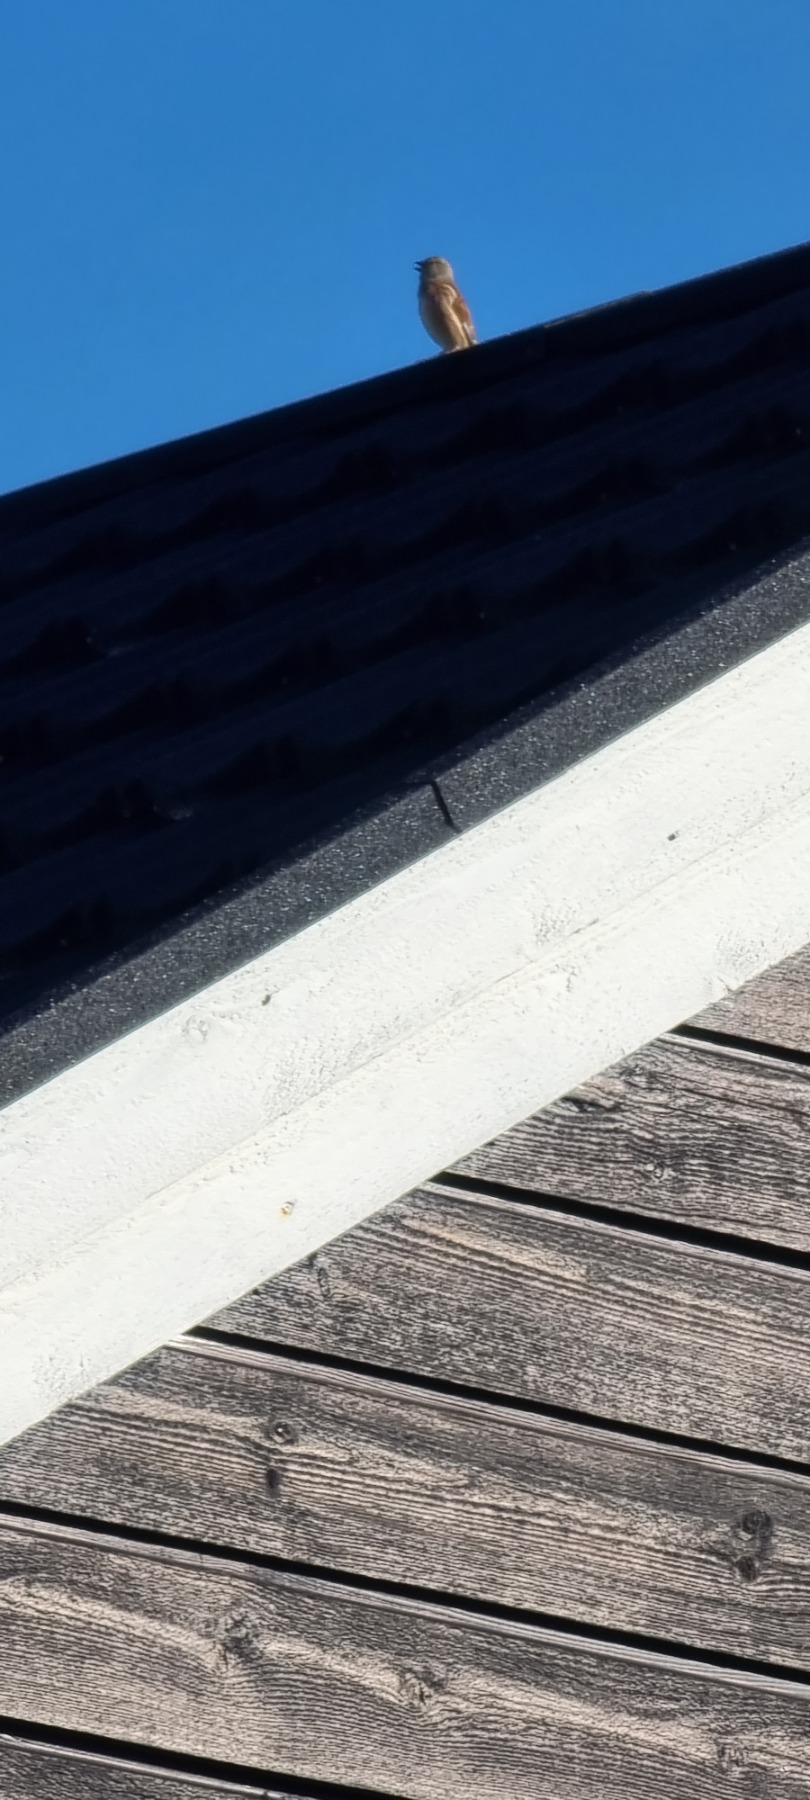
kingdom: Animalia
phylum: Chordata
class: Aves
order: Passeriformes
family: Fringillidae
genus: Linaria
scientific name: Linaria cannabina
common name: Tornirisk
